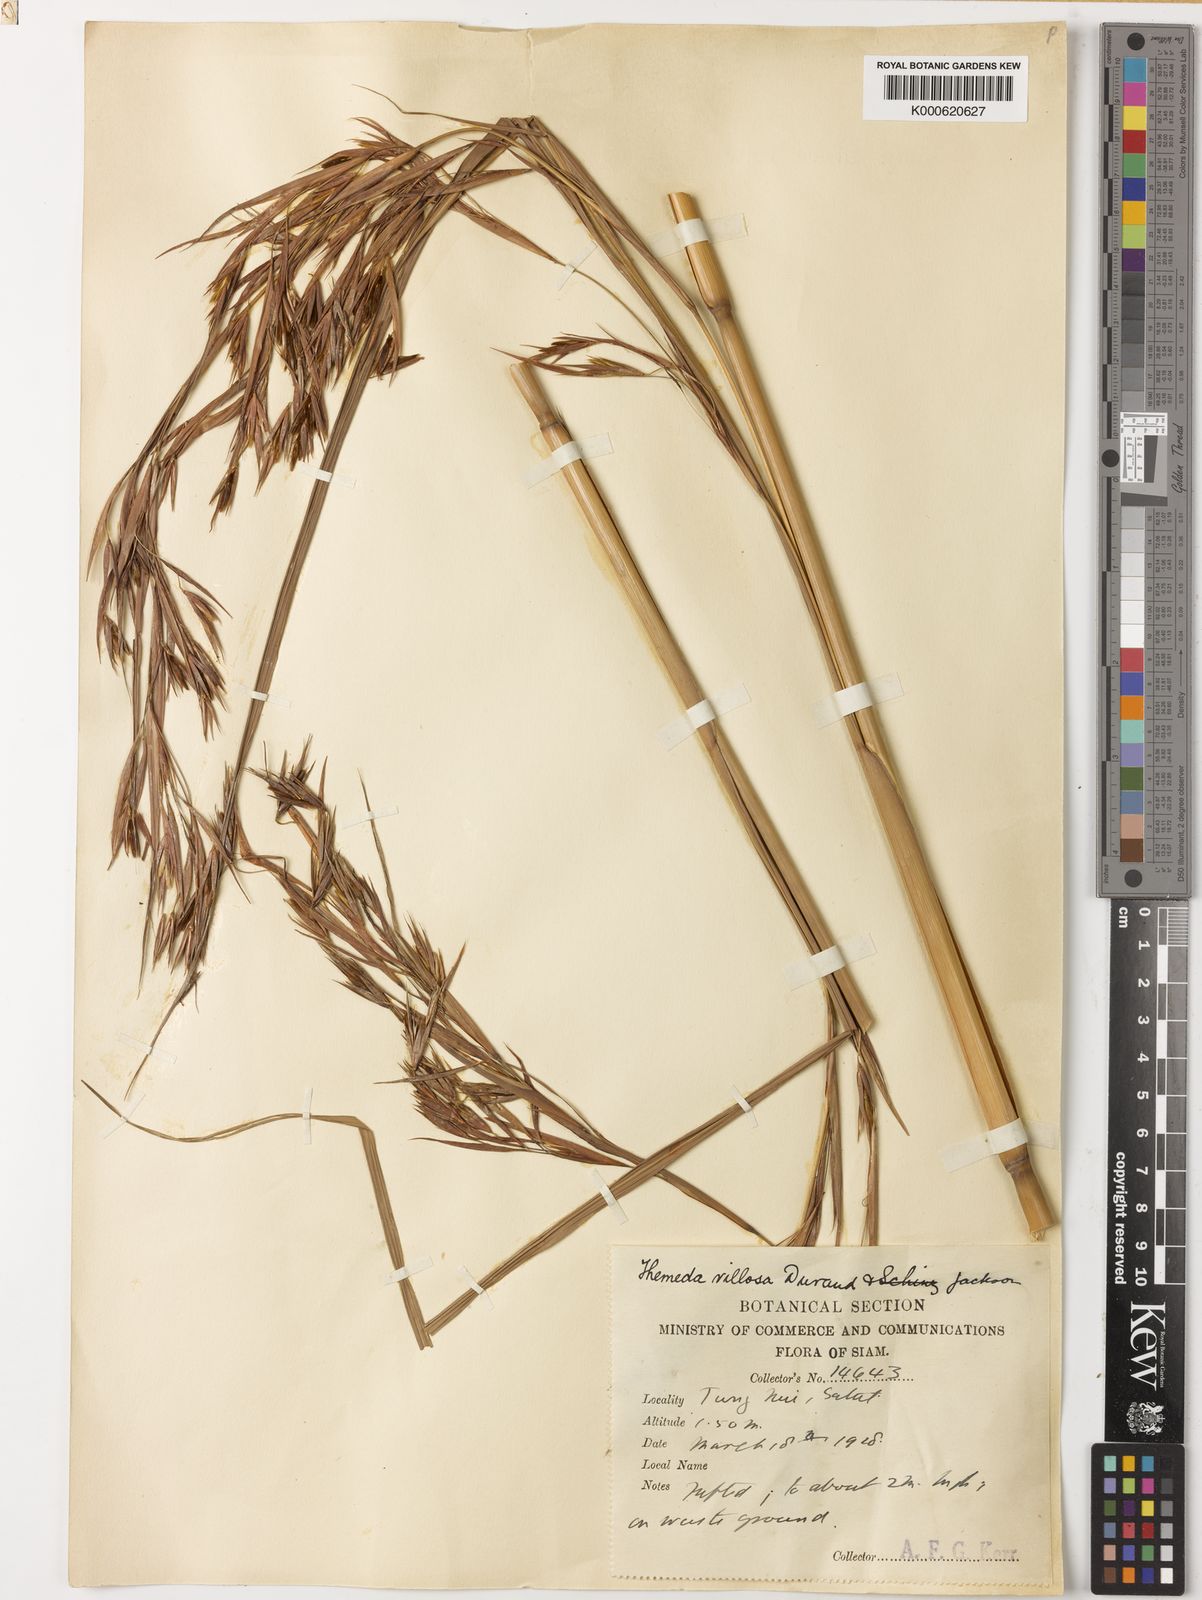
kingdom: Plantae
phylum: Tracheophyta
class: Liliopsida
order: Poales
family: Poaceae
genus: Themeda
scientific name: Themeda villosa
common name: Silky kangaroo grass
